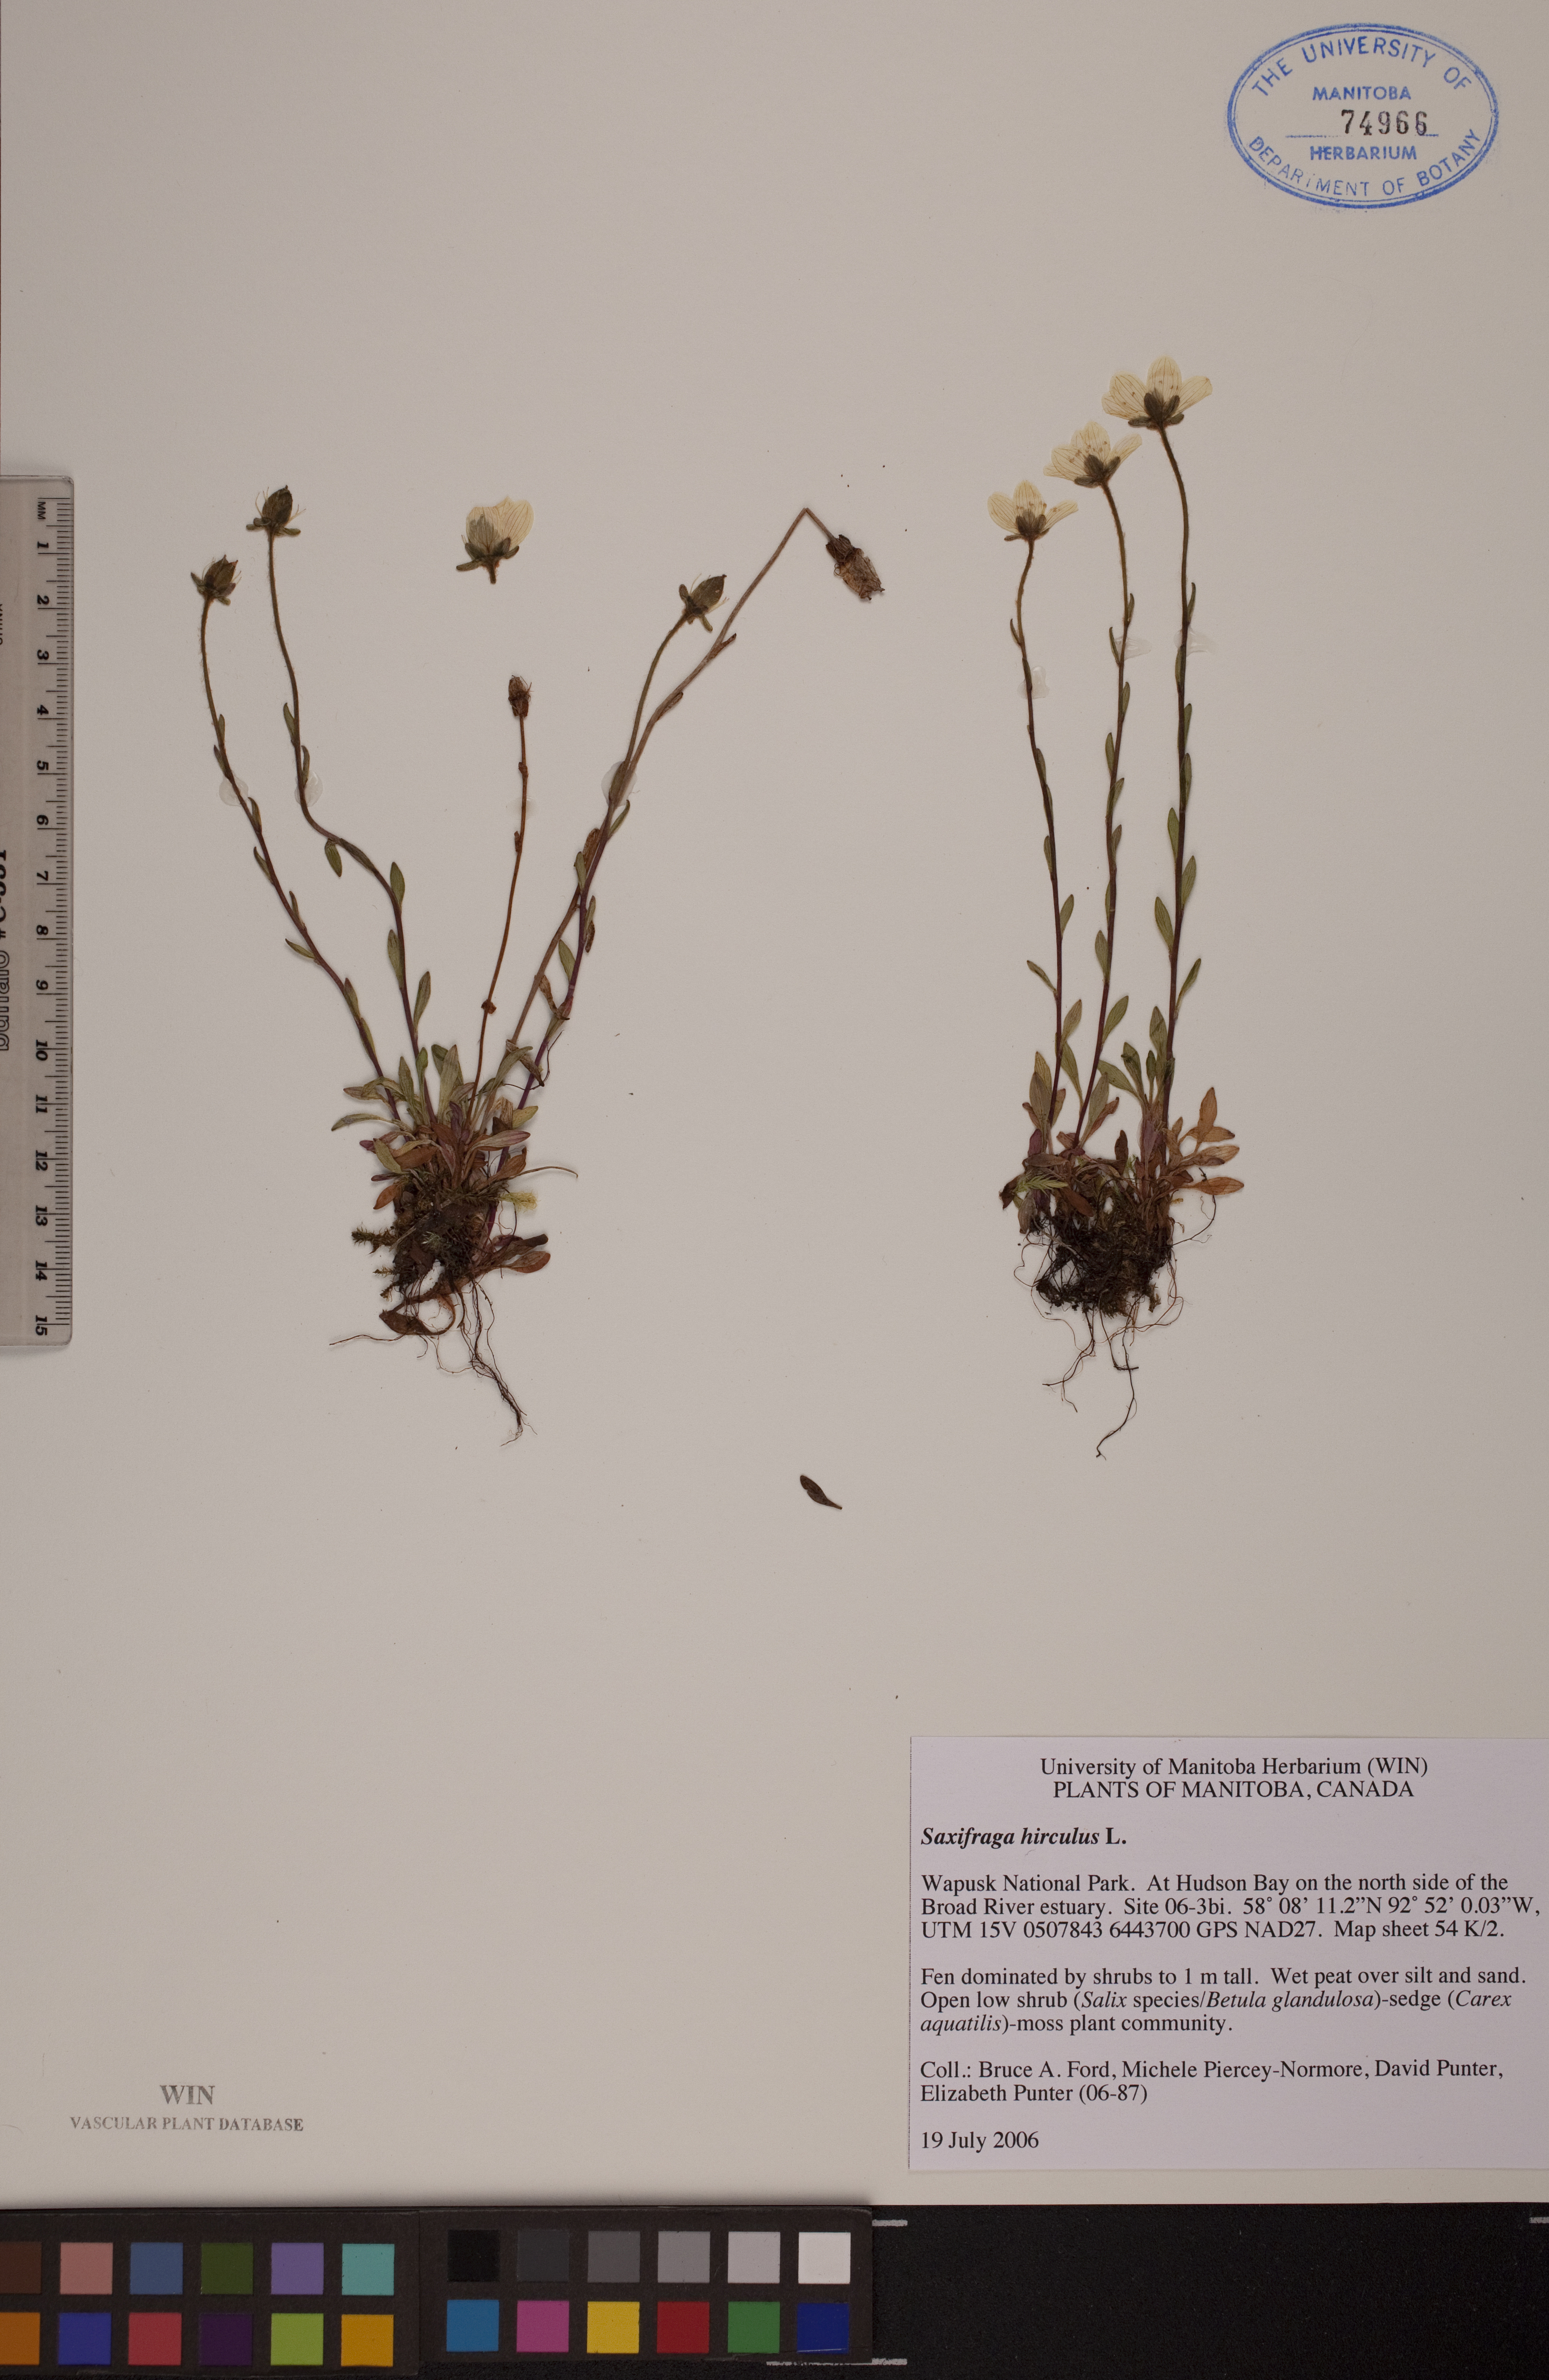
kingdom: Plantae
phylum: Tracheophyta
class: Magnoliopsida
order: Saxifragales
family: Saxifragaceae
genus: Saxifraga
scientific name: Saxifraga hirculus
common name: Yellow marsh saxifrage
